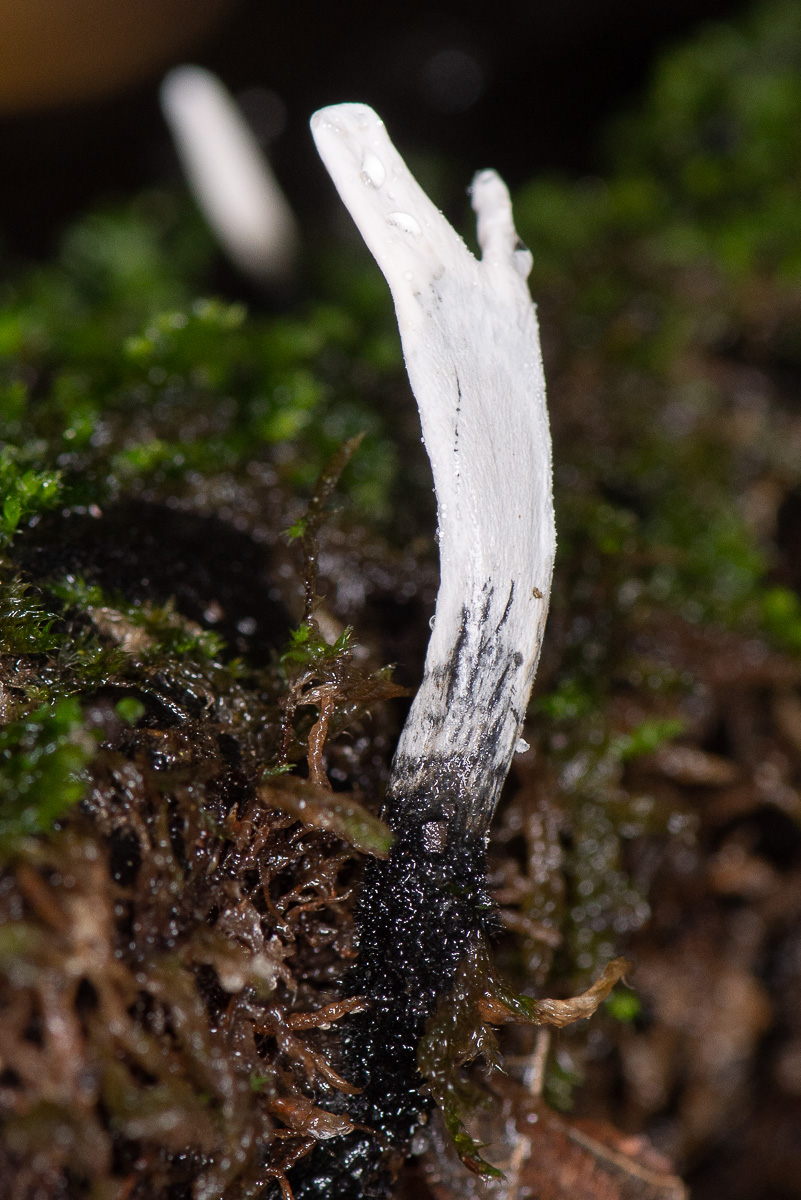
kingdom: Fungi
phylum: Ascomycota
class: Sordariomycetes
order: Xylariales
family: Xylariaceae
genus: Xylaria
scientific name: Xylaria hypoxylon
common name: grenet stødsvamp
